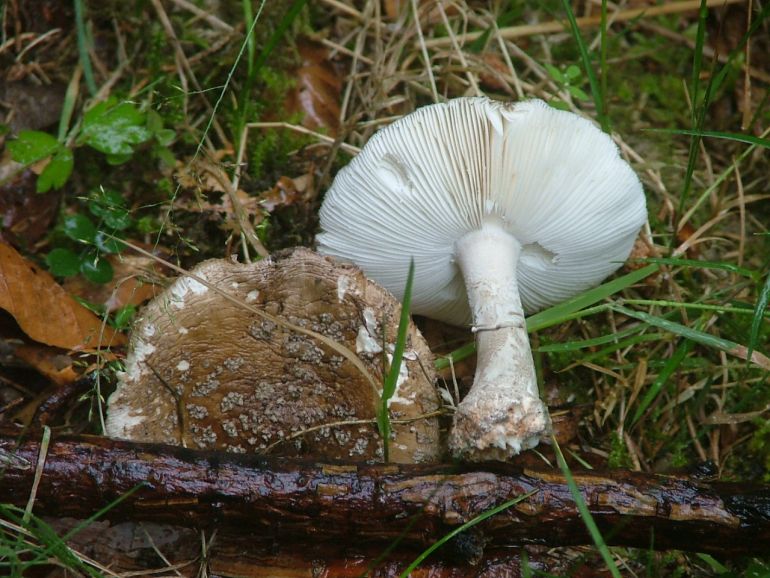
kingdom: Fungi
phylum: Basidiomycota
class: Agaricomycetes
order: Agaricales
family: Amanitaceae
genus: Amanita
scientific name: Amanita
